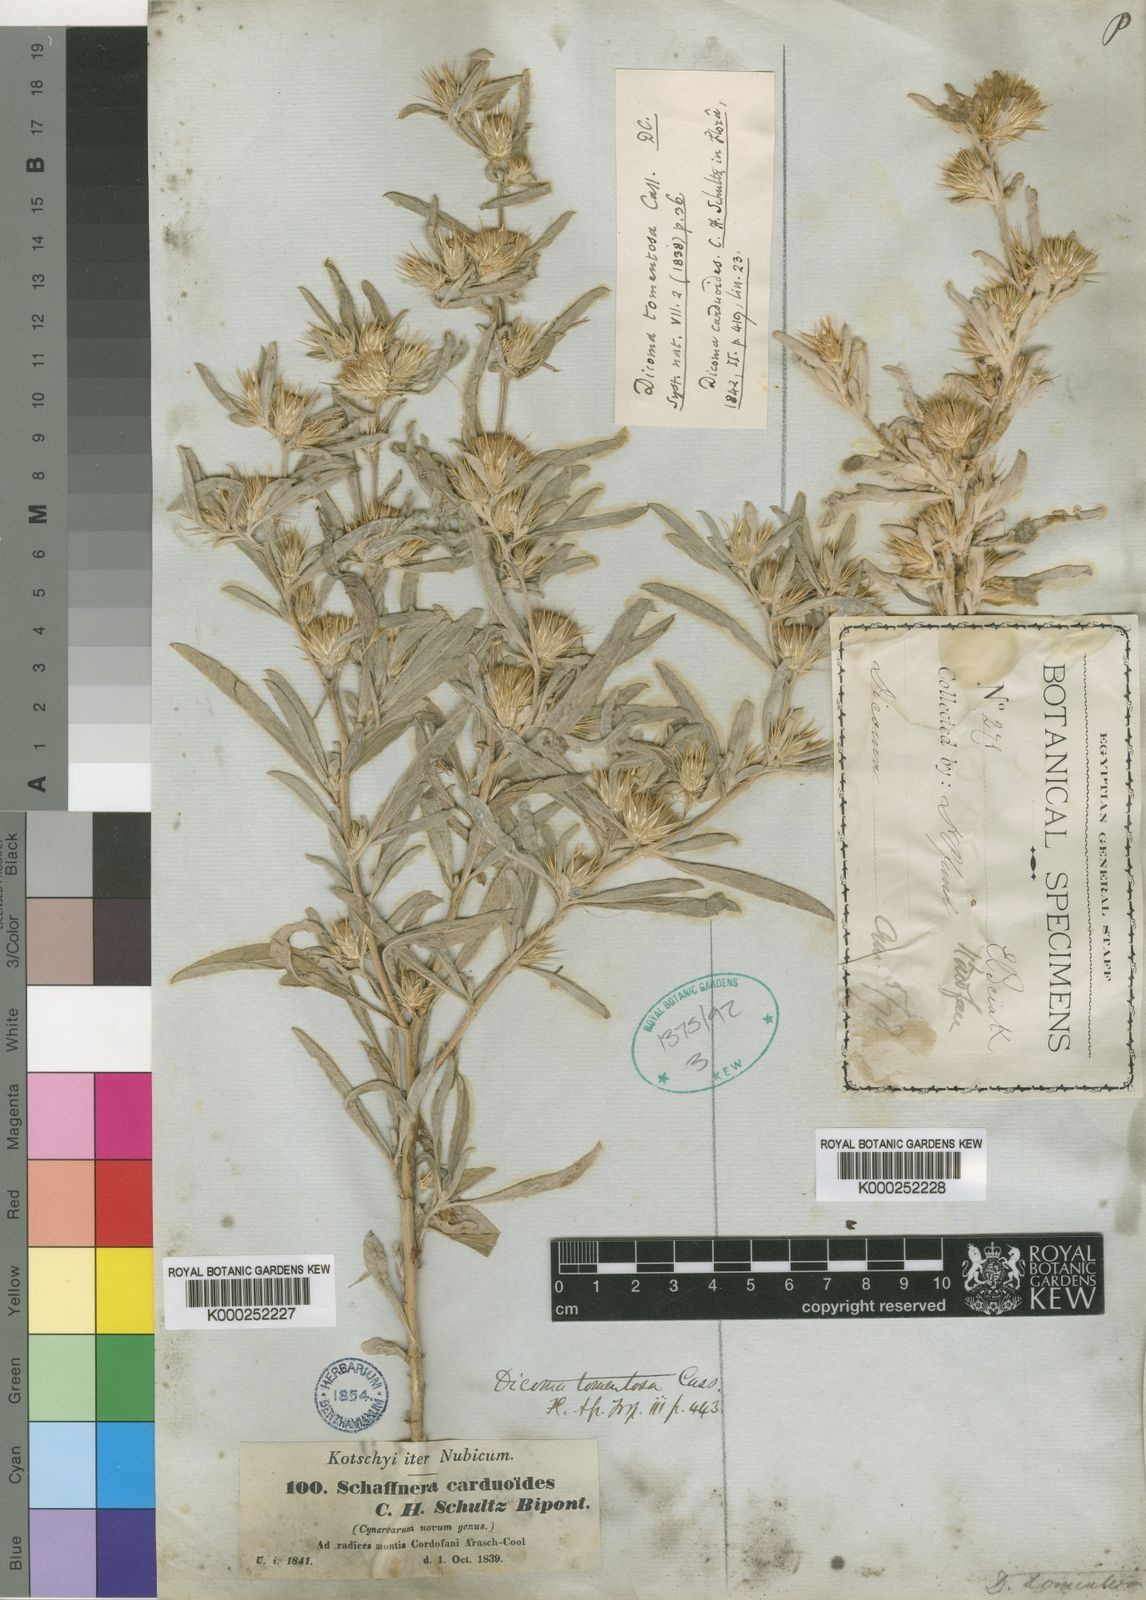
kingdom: Plantae
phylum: Tracheophyta
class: Magnoliopsida
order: Asterales
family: Asteraceae
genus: Dicoma
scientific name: Dicoma tomentosa
